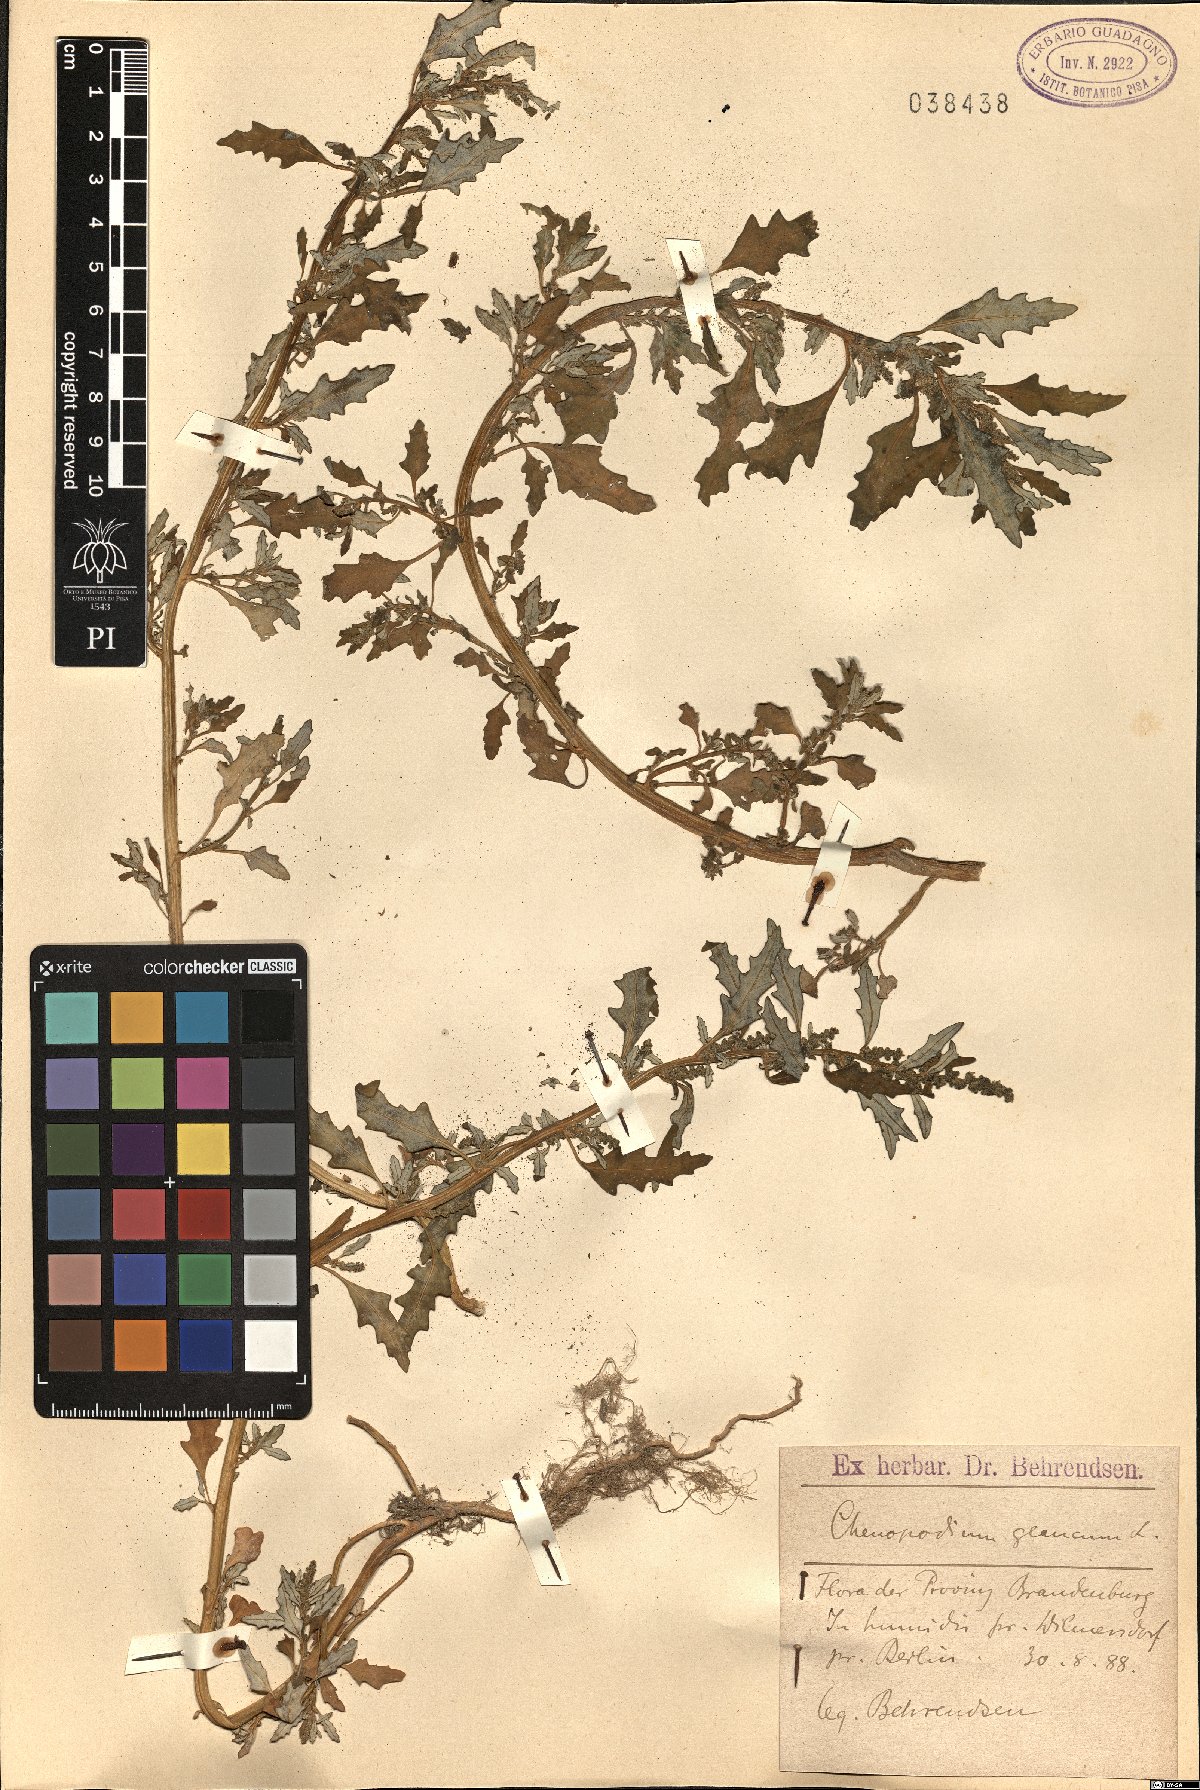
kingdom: Plantae
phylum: Tracheophyta
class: Magnoliopsida
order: Caryophyllales
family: Amaranthaceae
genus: Oxybasis
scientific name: Oxybasis glauca
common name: Glaucous goosefoot
